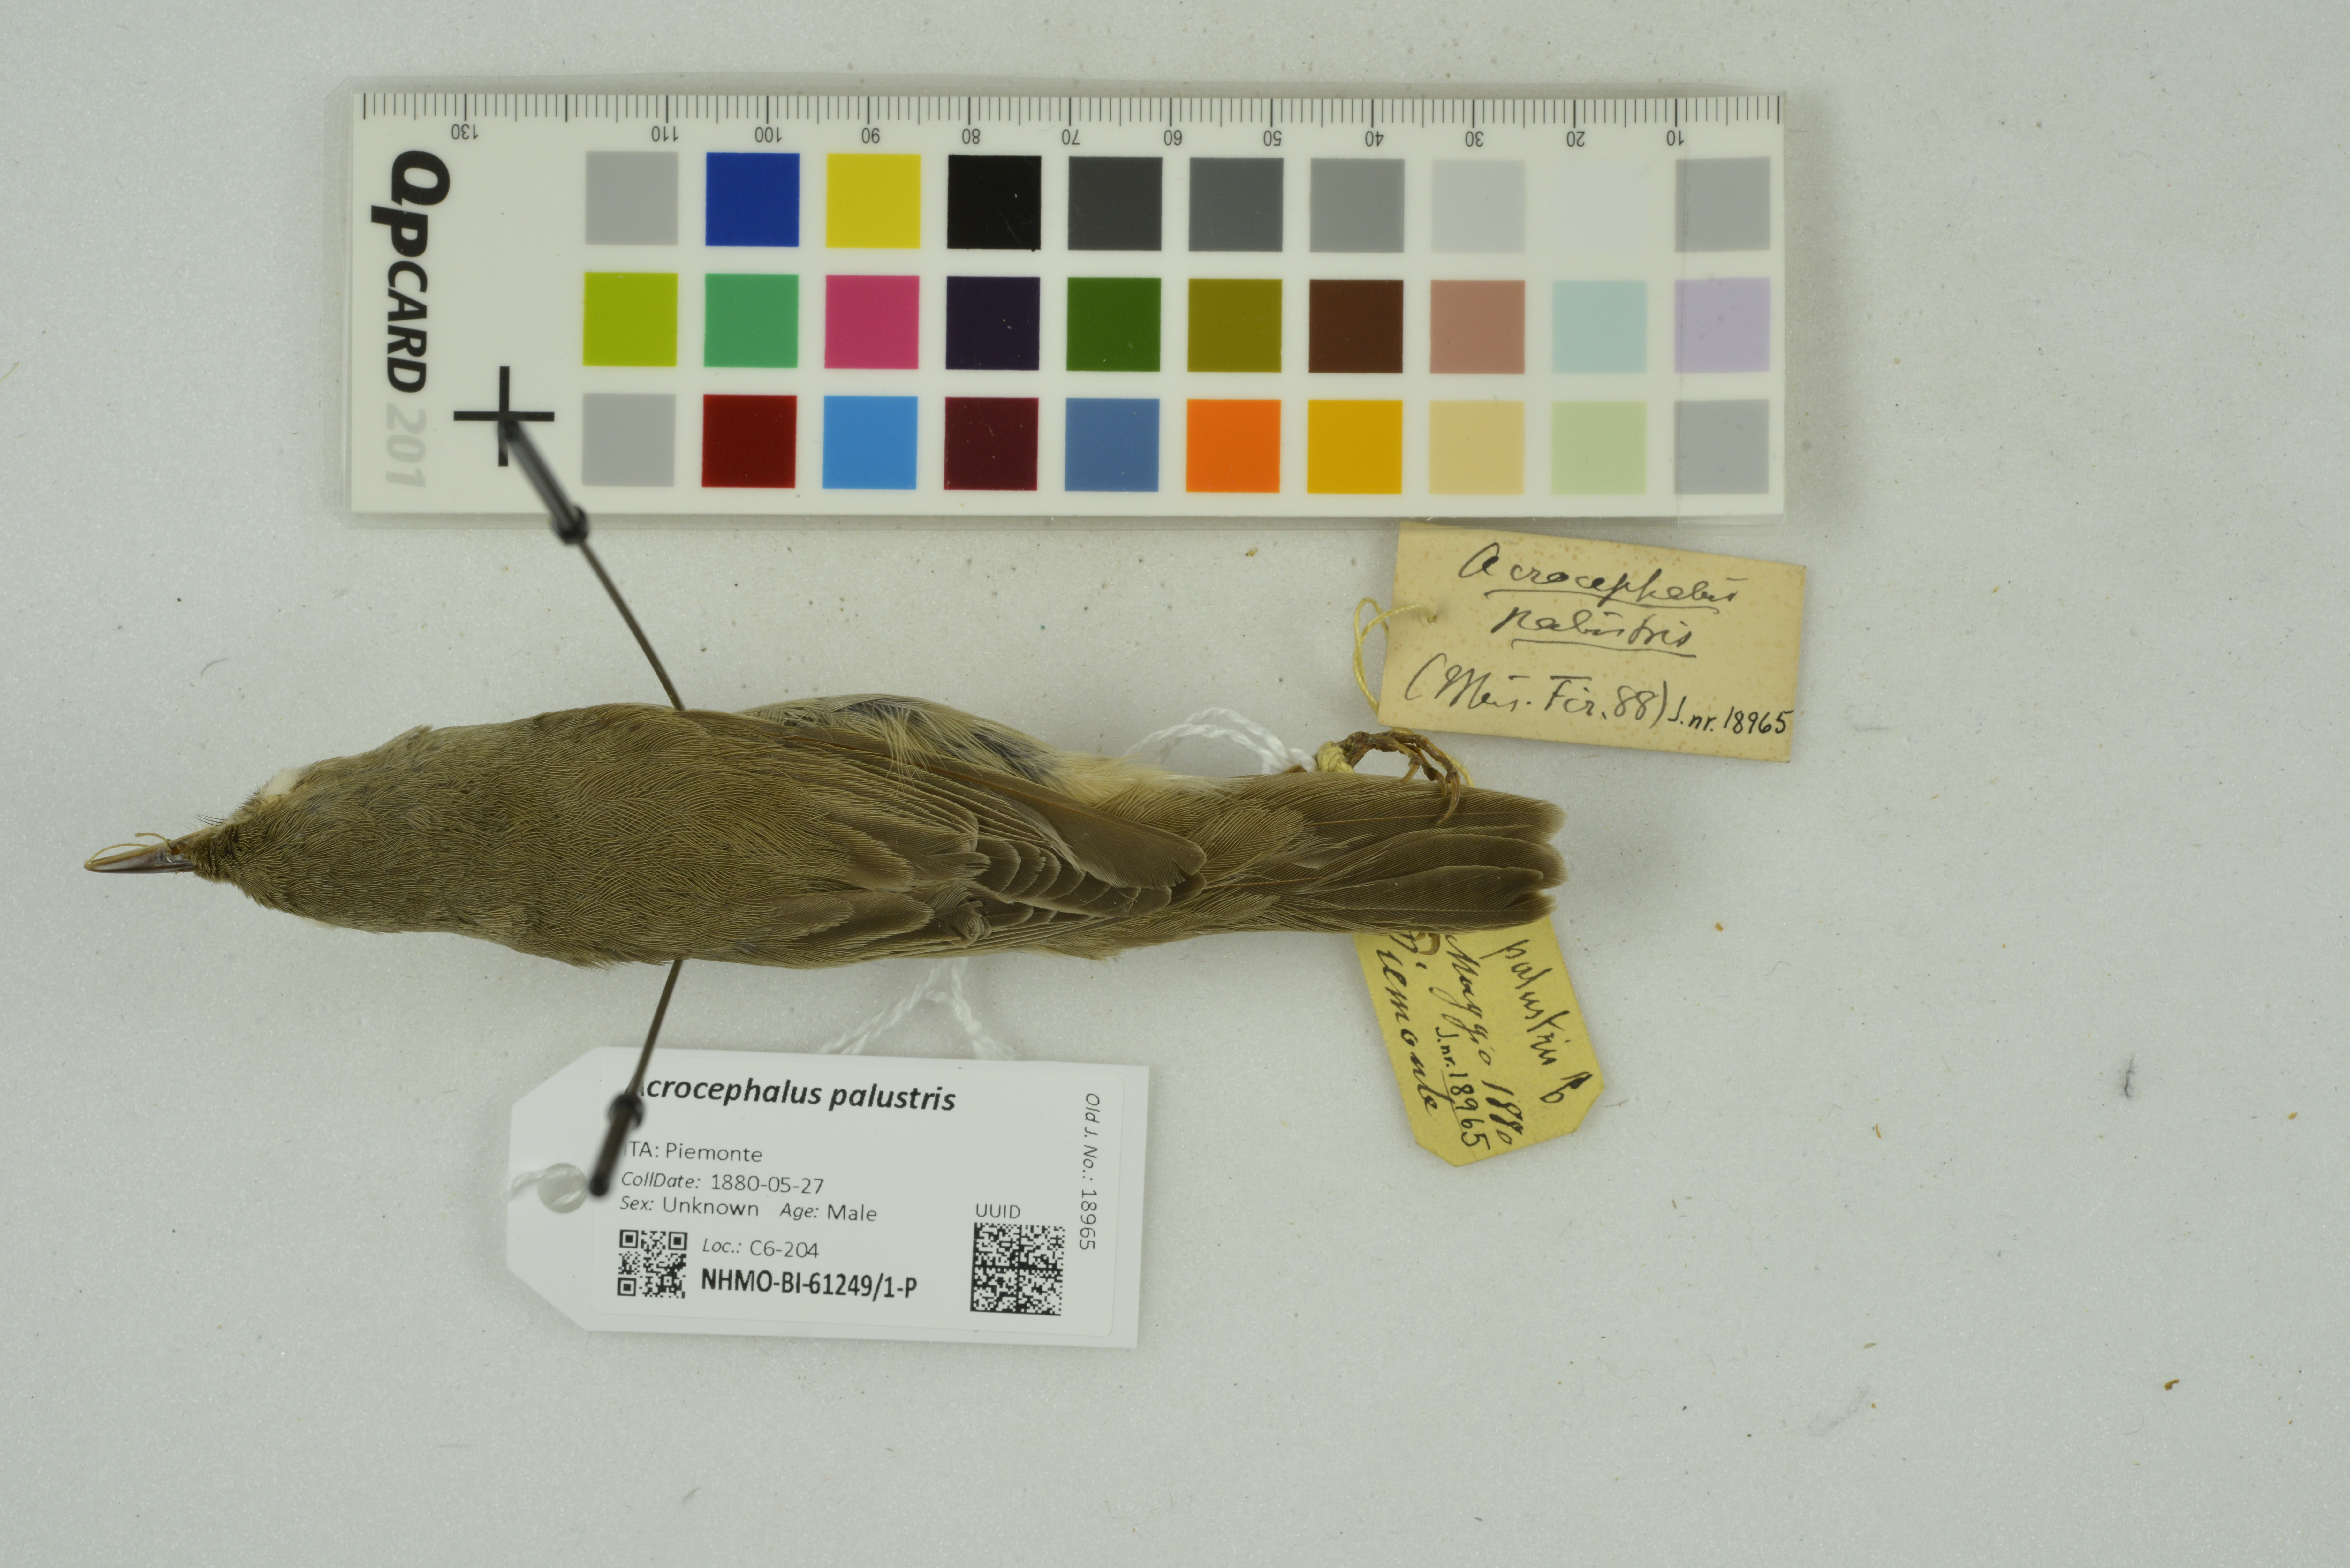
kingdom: Animalia
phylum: Chordata
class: Aves
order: Passeriformes
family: Acrocephalidae
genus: Acrocephalus
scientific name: Acrocephalus palustris
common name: Marsh warbler
